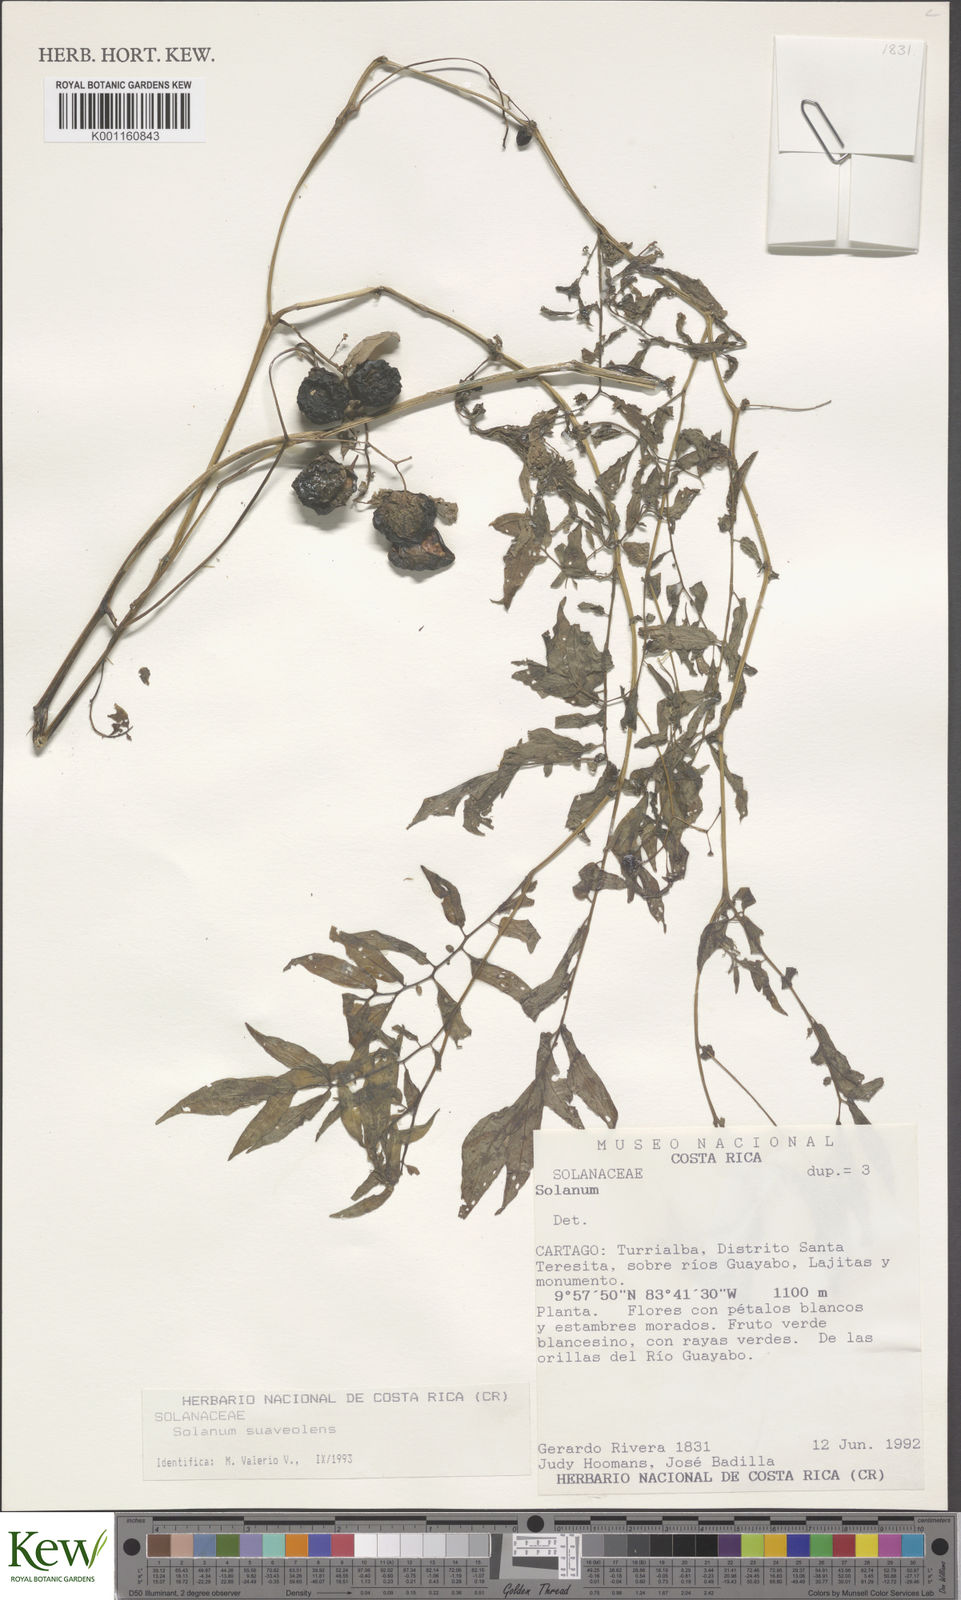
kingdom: Plantae
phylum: Tracheophyta
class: Magnoliopsida
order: Solanales
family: Solanaceae
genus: Solanum
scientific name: Solanum
